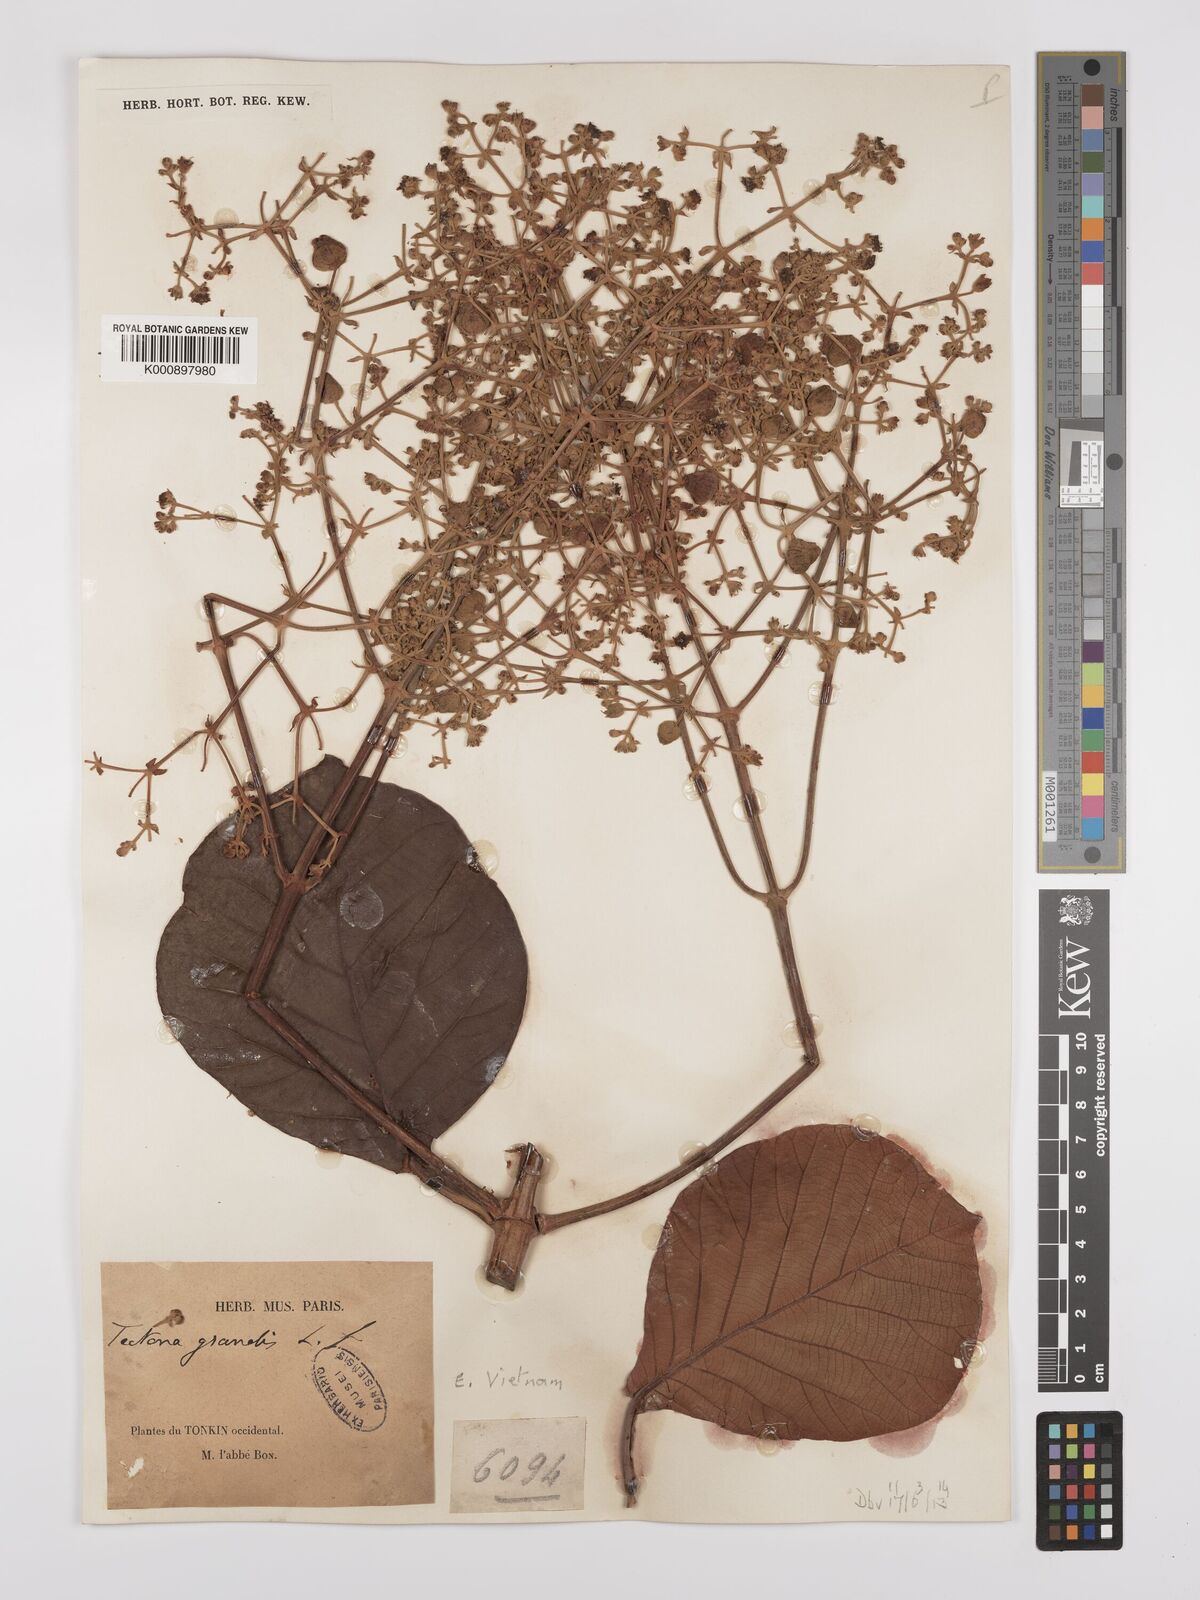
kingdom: Plantae
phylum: Tracheophyta
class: Magnoliopsida
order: Lamiales
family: Lamiaceae
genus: Tectona
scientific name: Tectona grandis
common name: Teak
